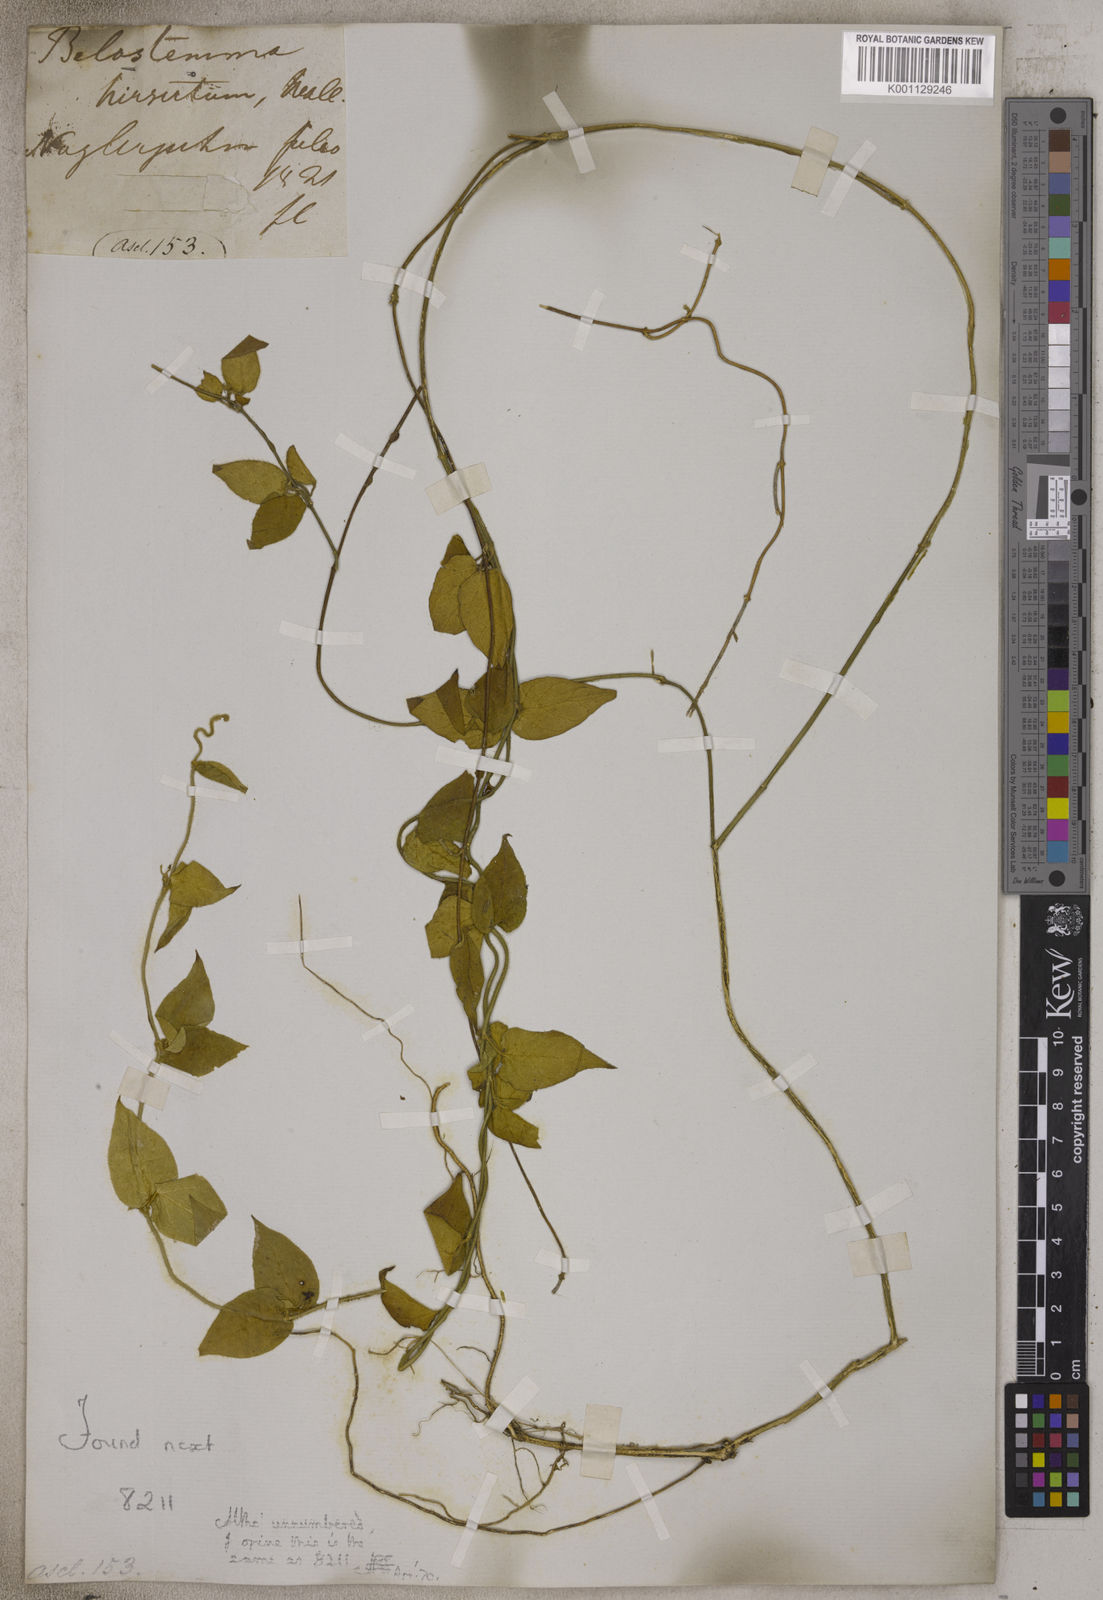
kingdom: Plantae
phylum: Tracheophyta
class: Magnoliopsida
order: Gentianales
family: Apocynaceae
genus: Vincetoxicum
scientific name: Vincetoxicum belostemma
